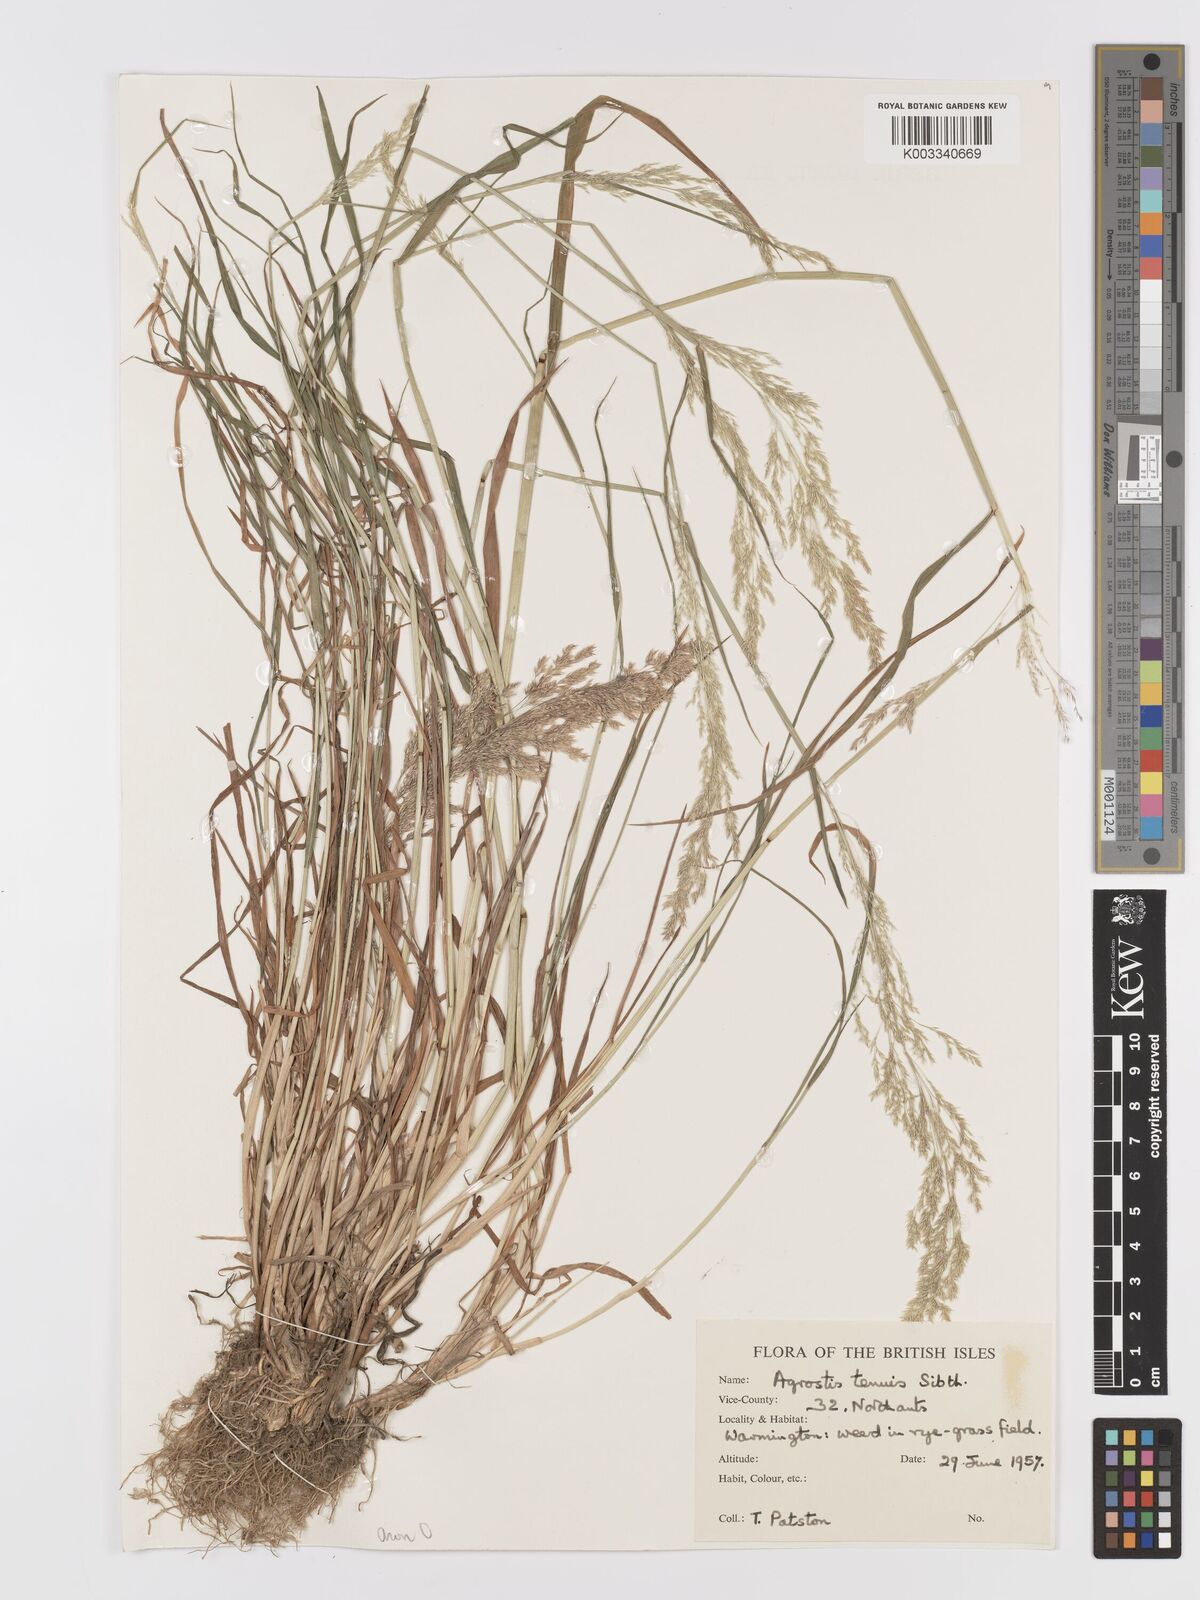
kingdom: Plantae
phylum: Tracheophyta
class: Liliopsida
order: Poales
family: Poaceae
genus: Agrostis
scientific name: Agrostis capillaris
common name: Colonial bentgrass
